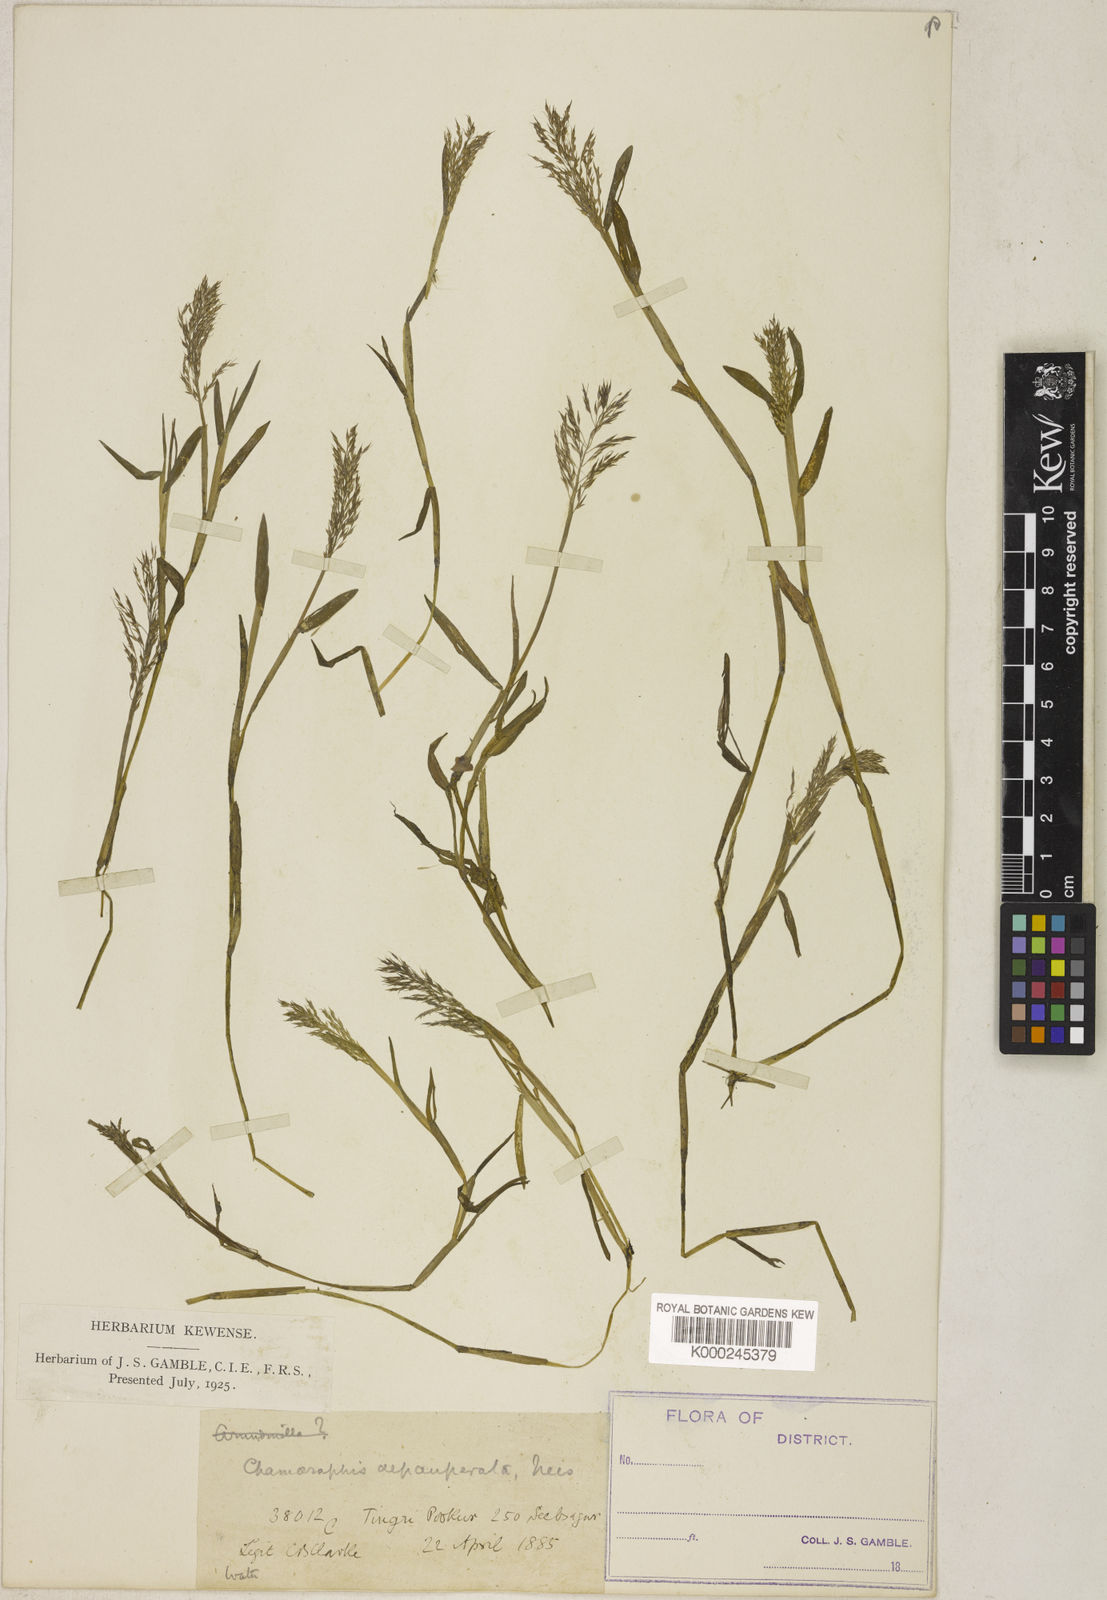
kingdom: Plantae
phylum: Tracheophyta
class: Liliopsida
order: Poales
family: Poaceae
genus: Pseudoraphis
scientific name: Pseudoraphis minuta
